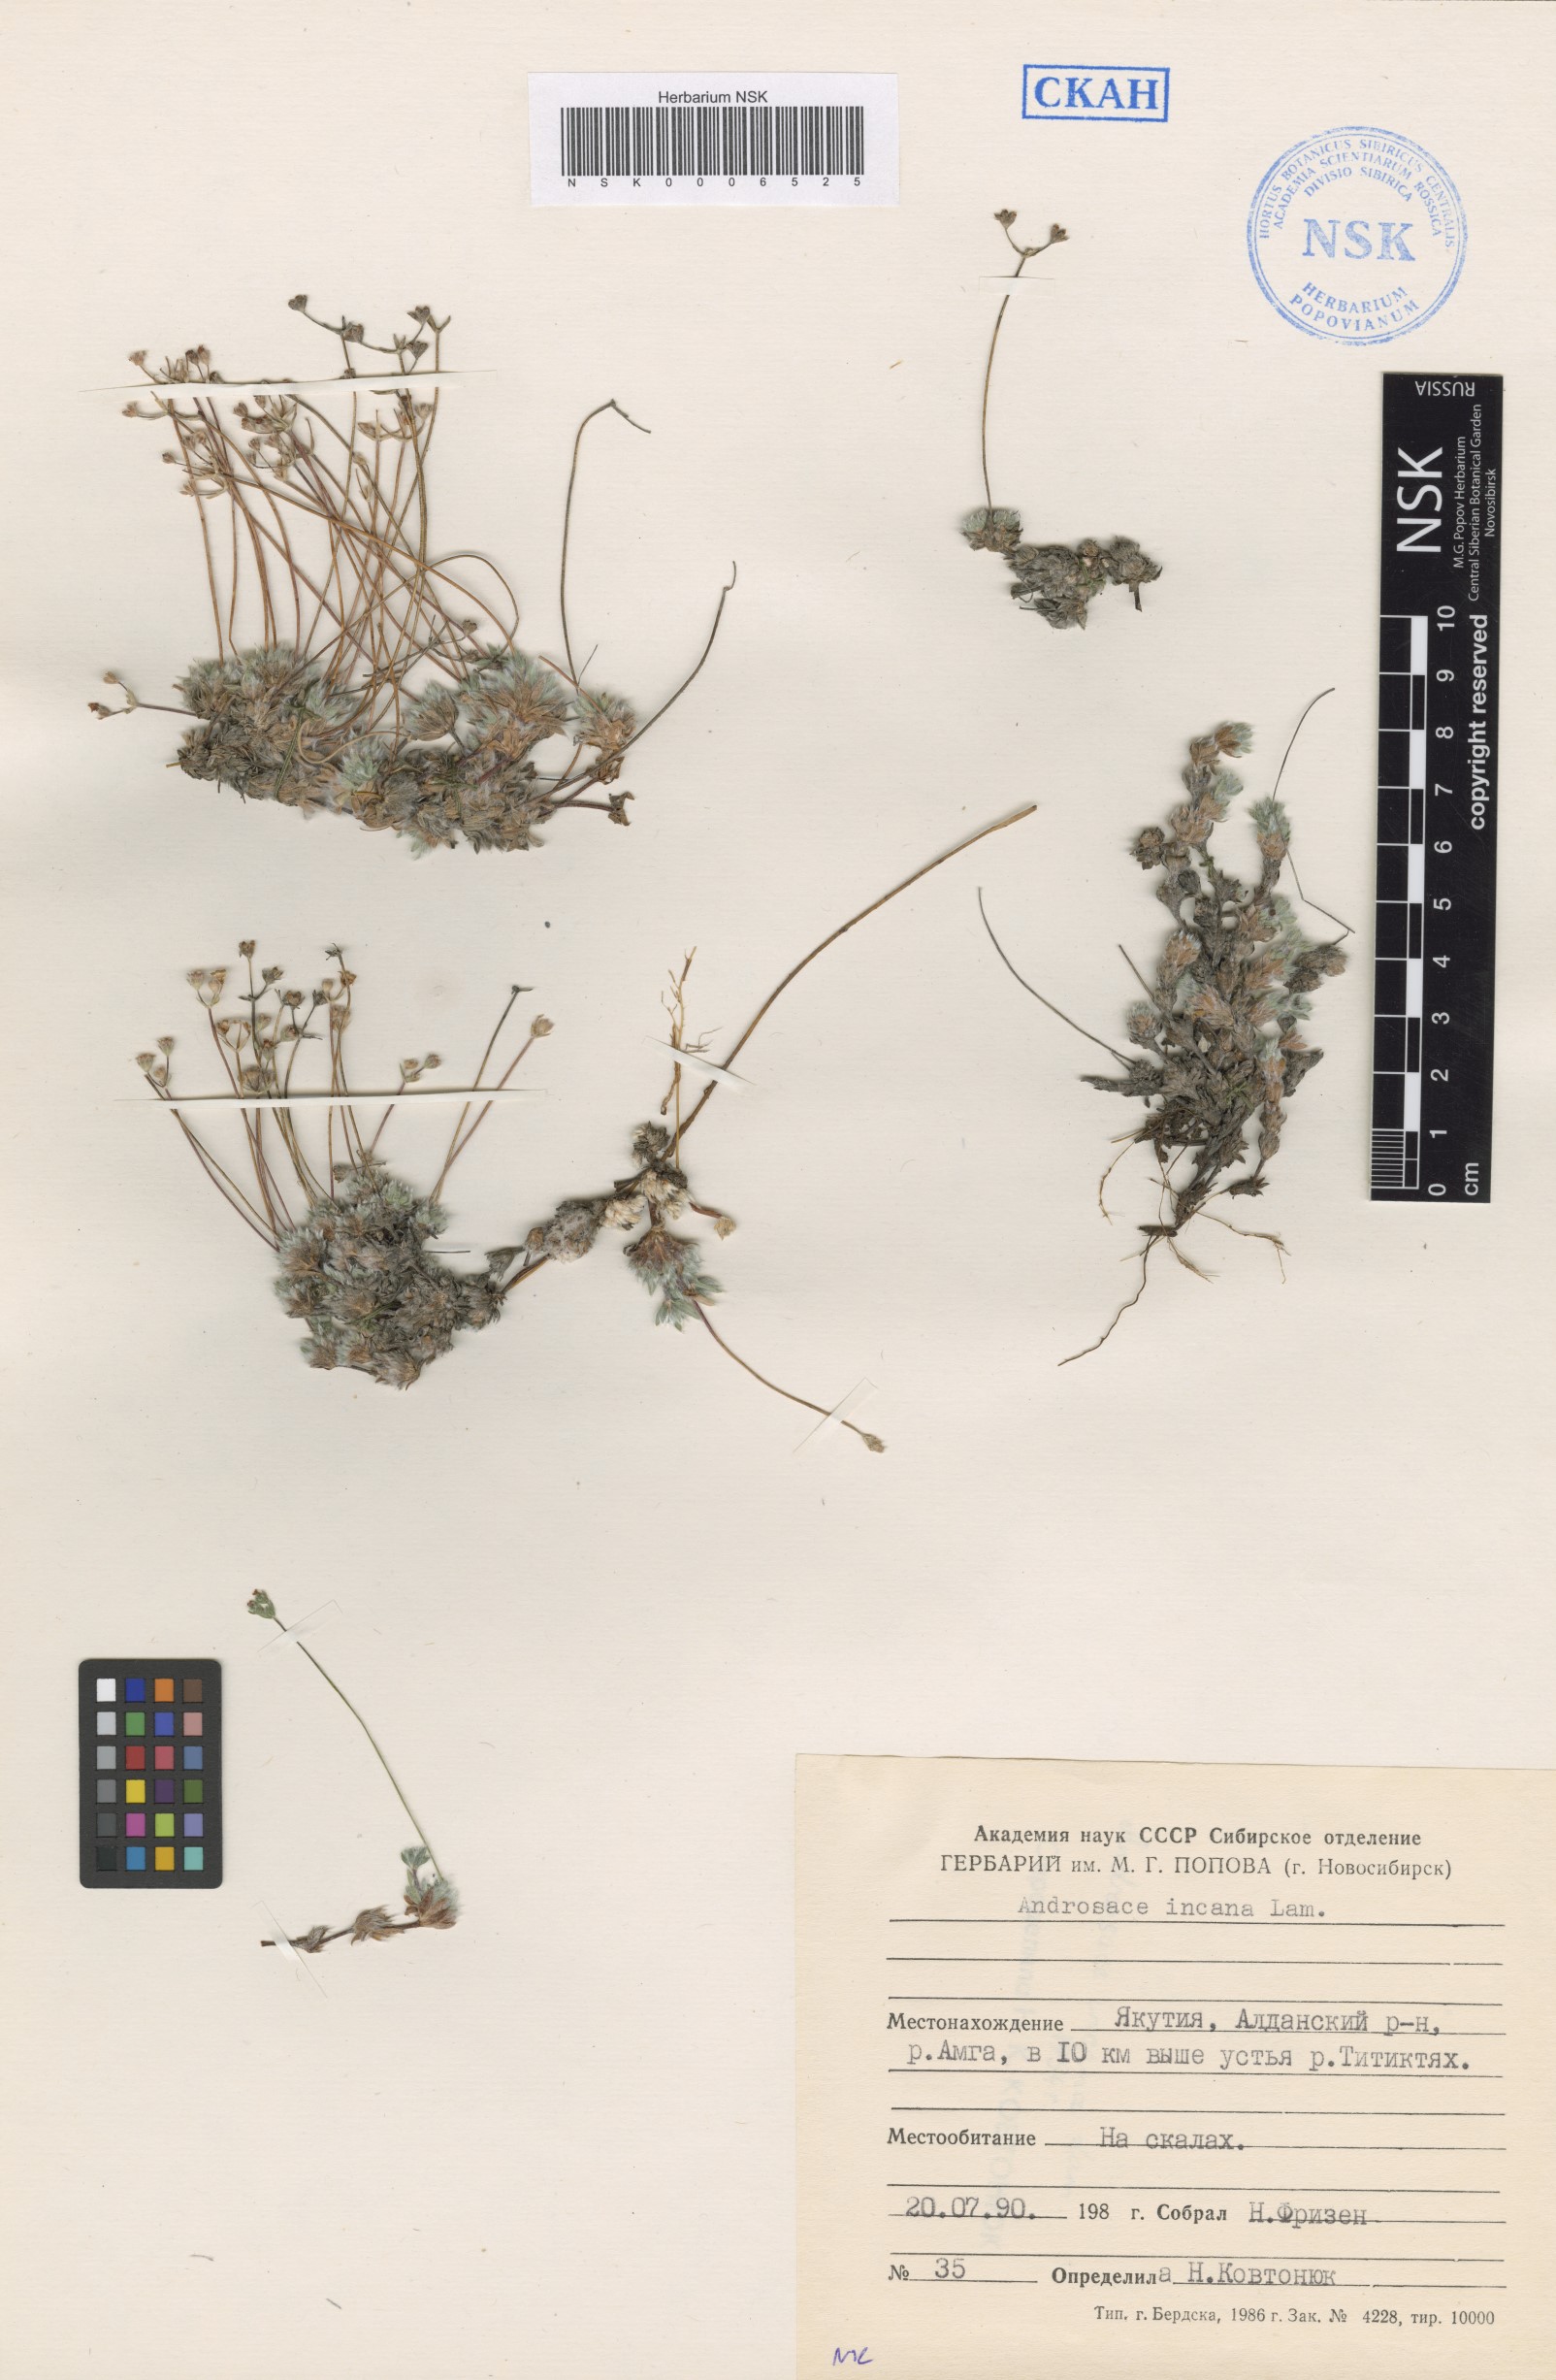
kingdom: Plantae
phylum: Tracheophyta
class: Magnoliopsida
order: Ericales
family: Primulaceae
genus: Androsace
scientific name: Androsace incana
